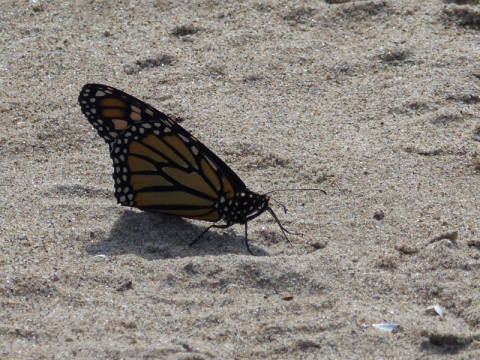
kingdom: Animalia
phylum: Arthropoda
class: Insecta
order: Lepidoptera
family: Nymphalidae
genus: Danaus
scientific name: Danaus plexippus
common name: Monarch
